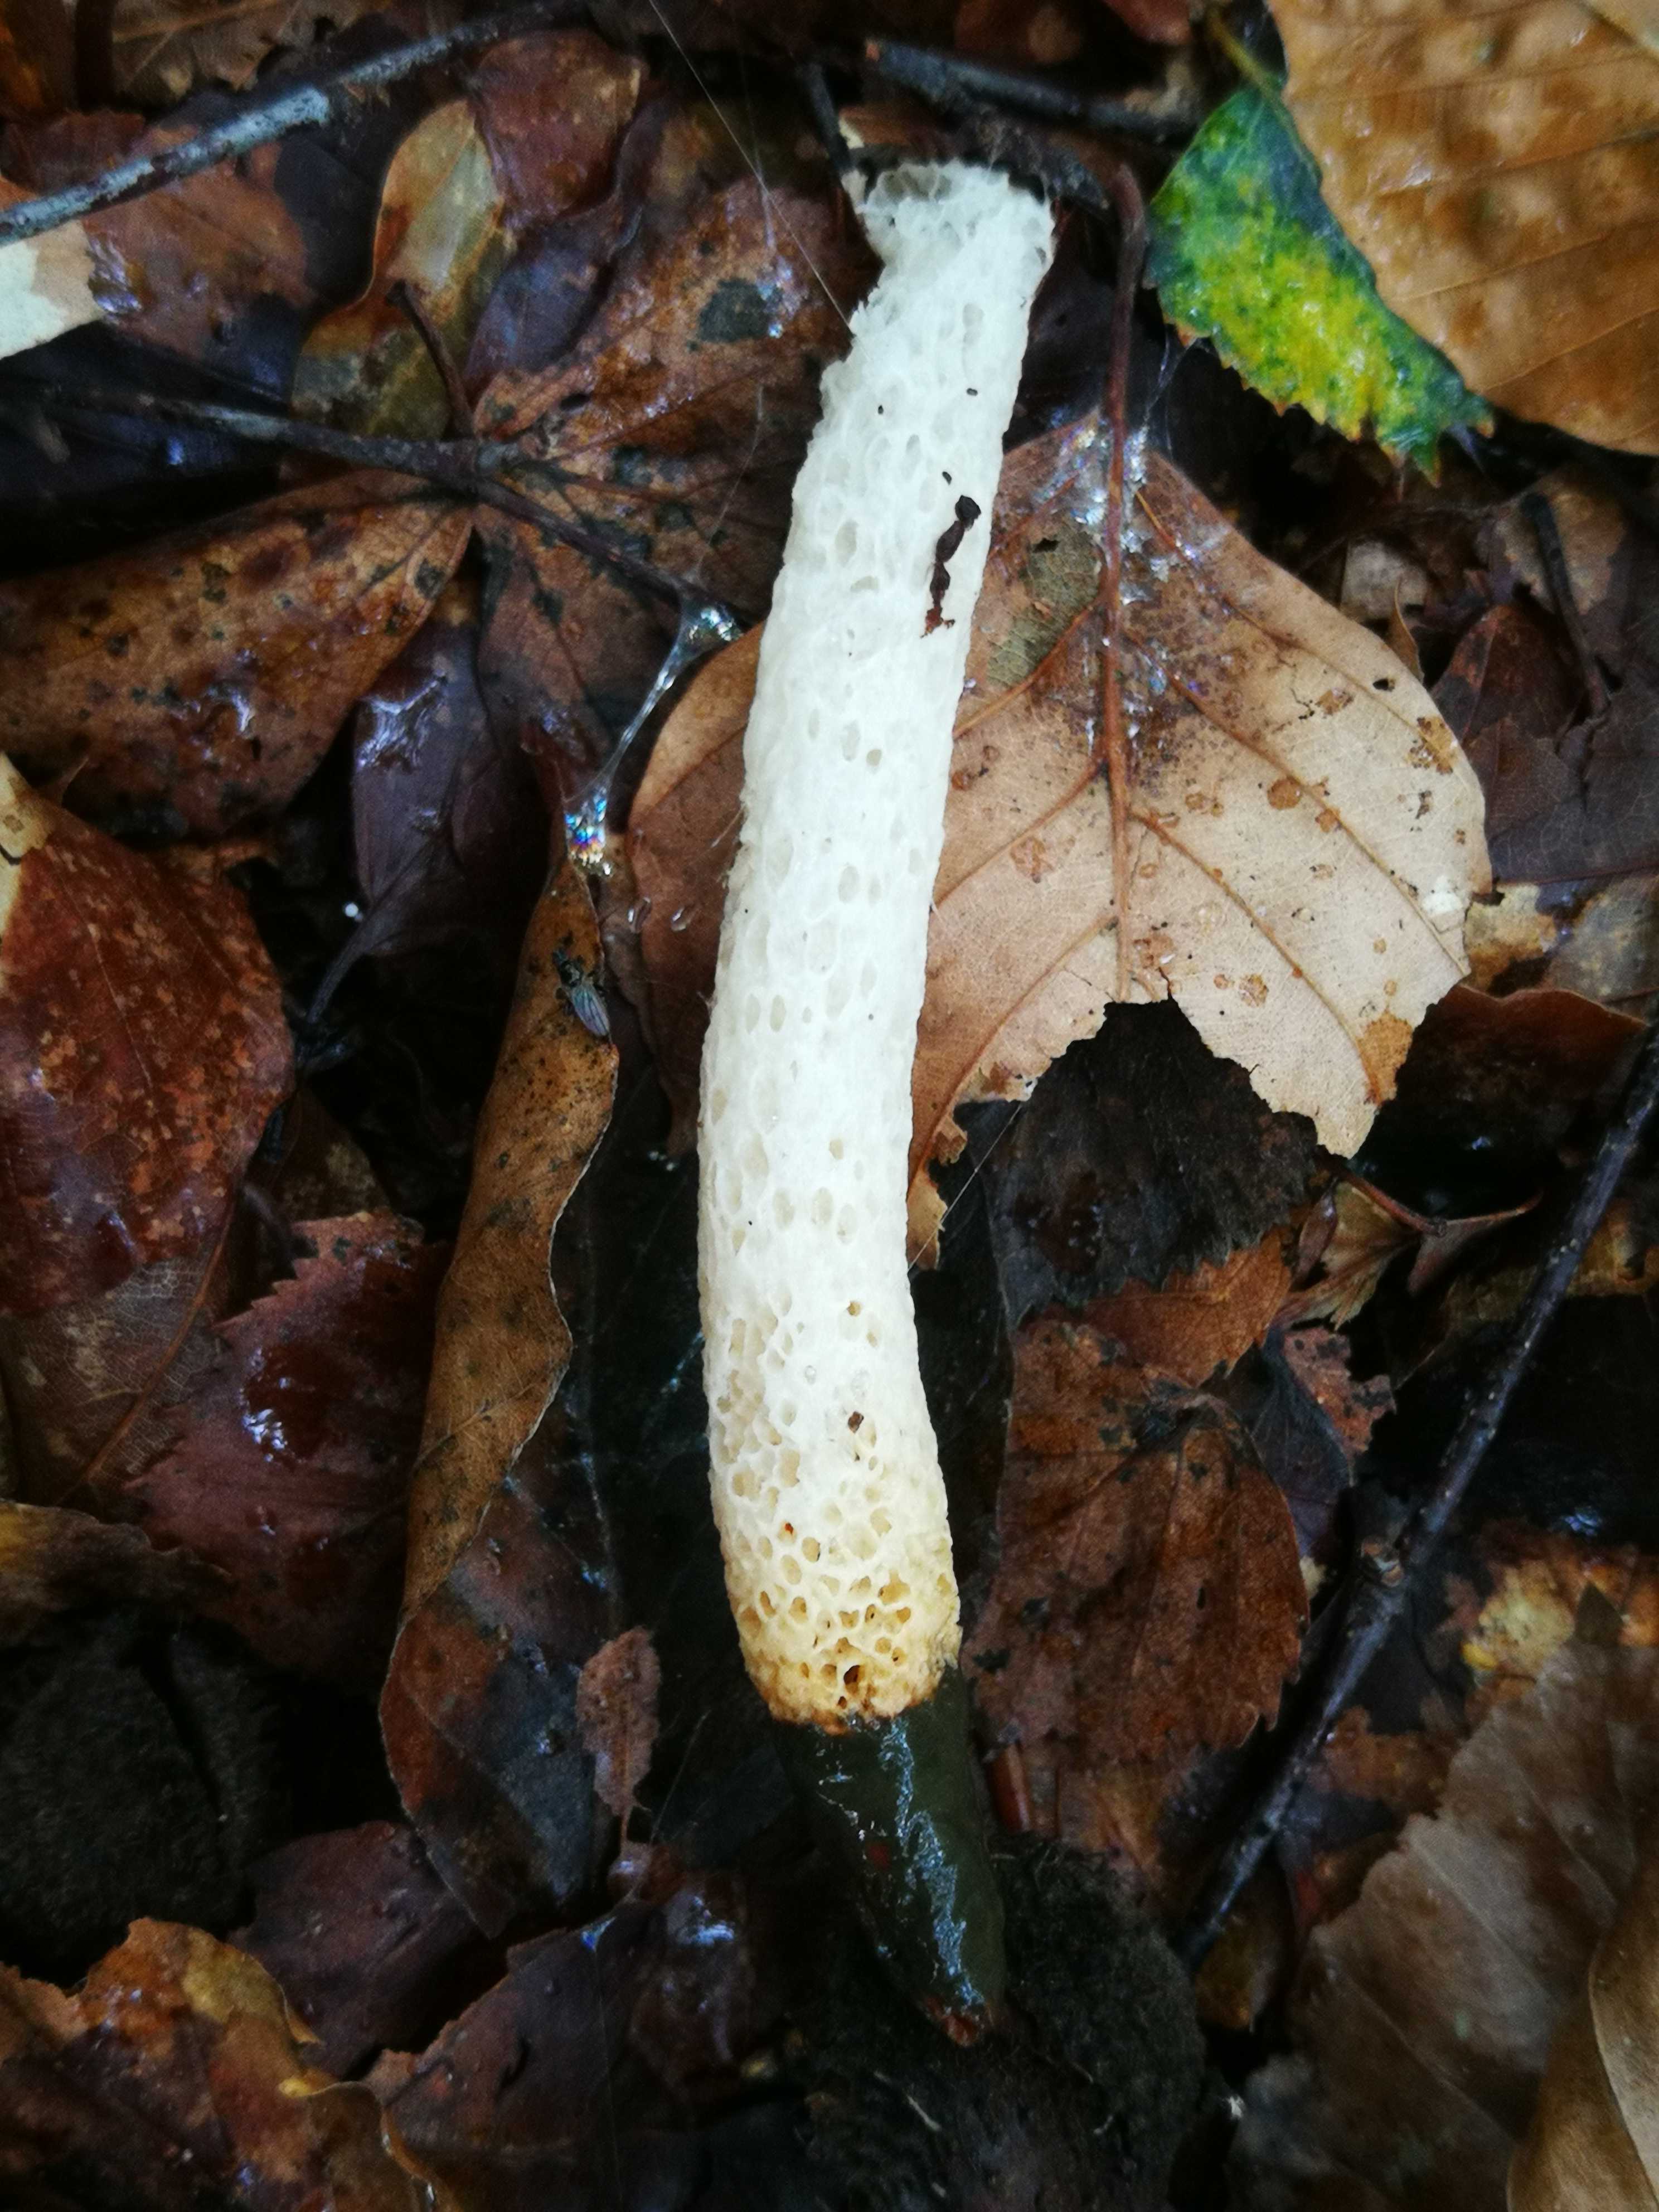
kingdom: Fungi
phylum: Basidiomycota
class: Agaricomycetes
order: Phallales
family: Phallaceae
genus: Mutinus
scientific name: Mutinus caninus
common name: hunde-stinksvamp
